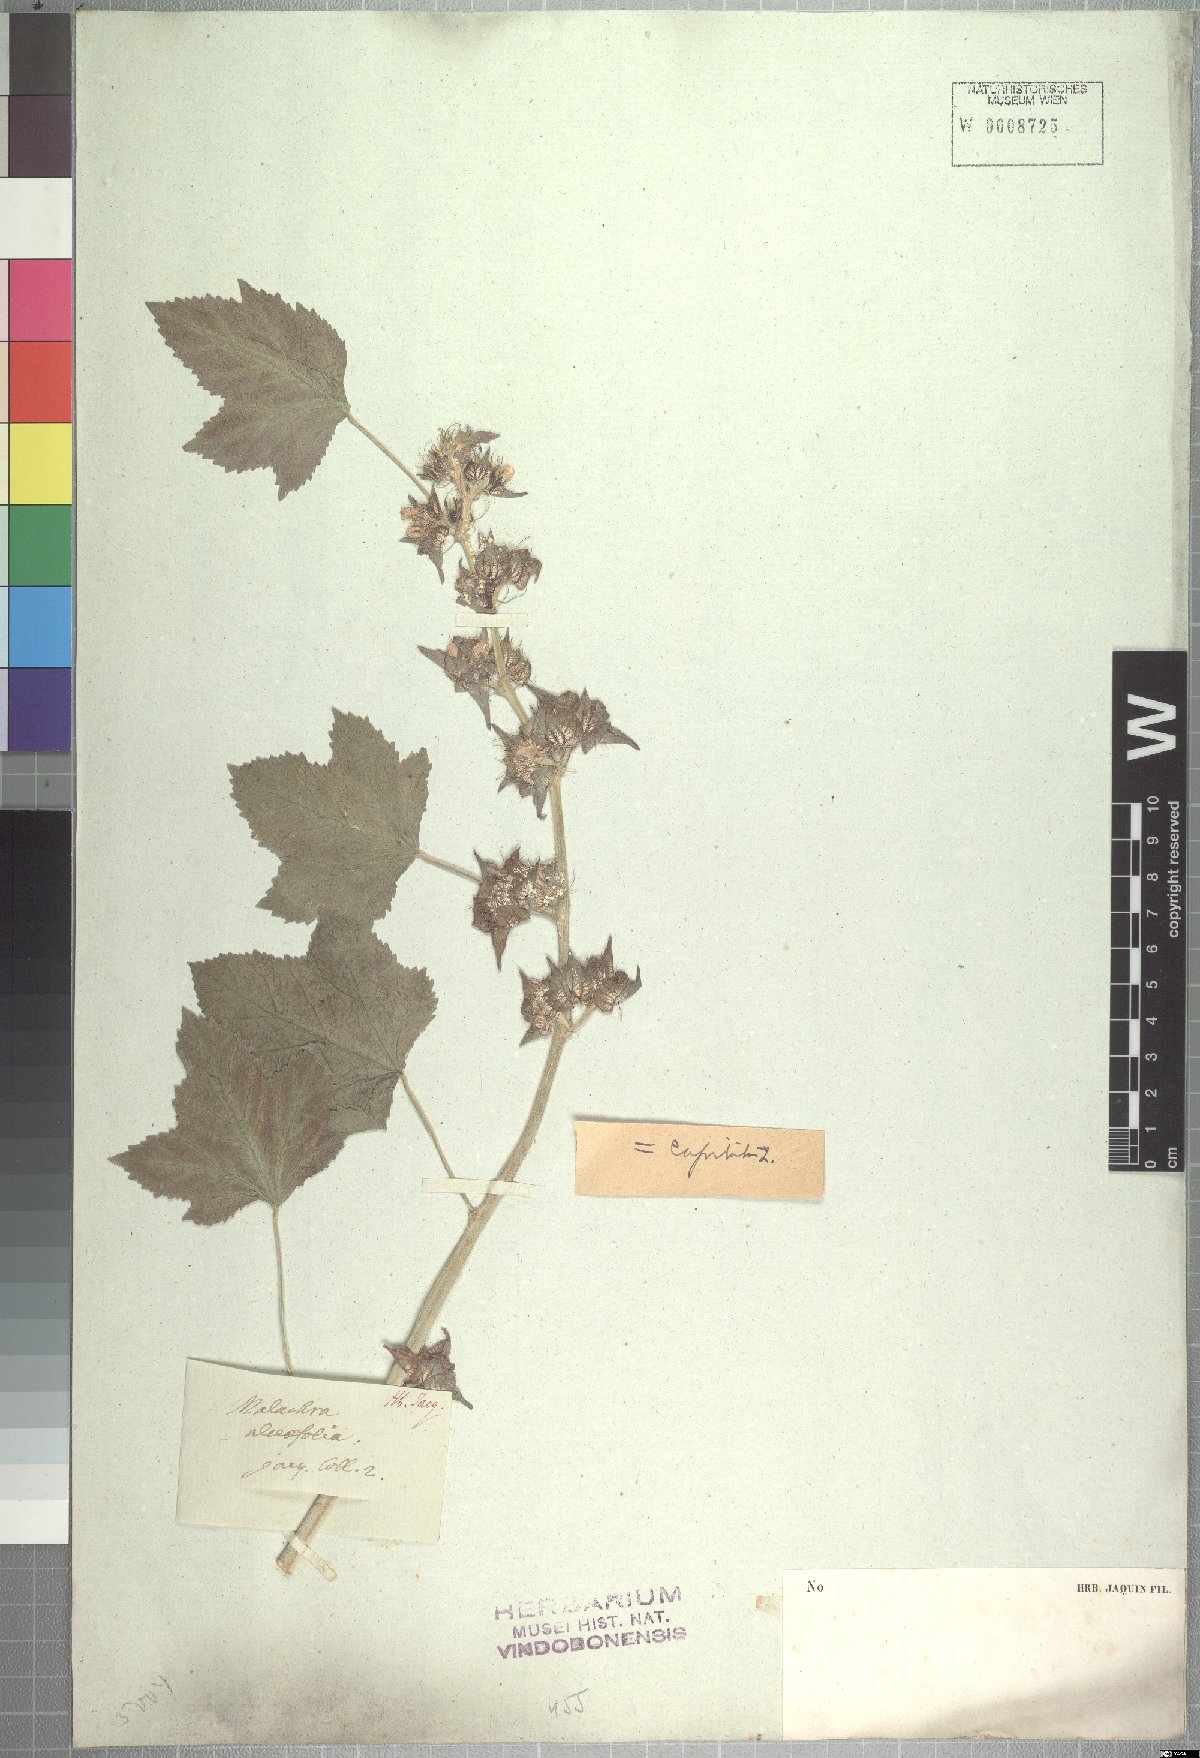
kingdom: Plantae
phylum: Tracheophyta
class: Magnoliopsida
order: Malvales
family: Malvaceae
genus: Malachra
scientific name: Malachra alceifolia
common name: Yellow leafbract
